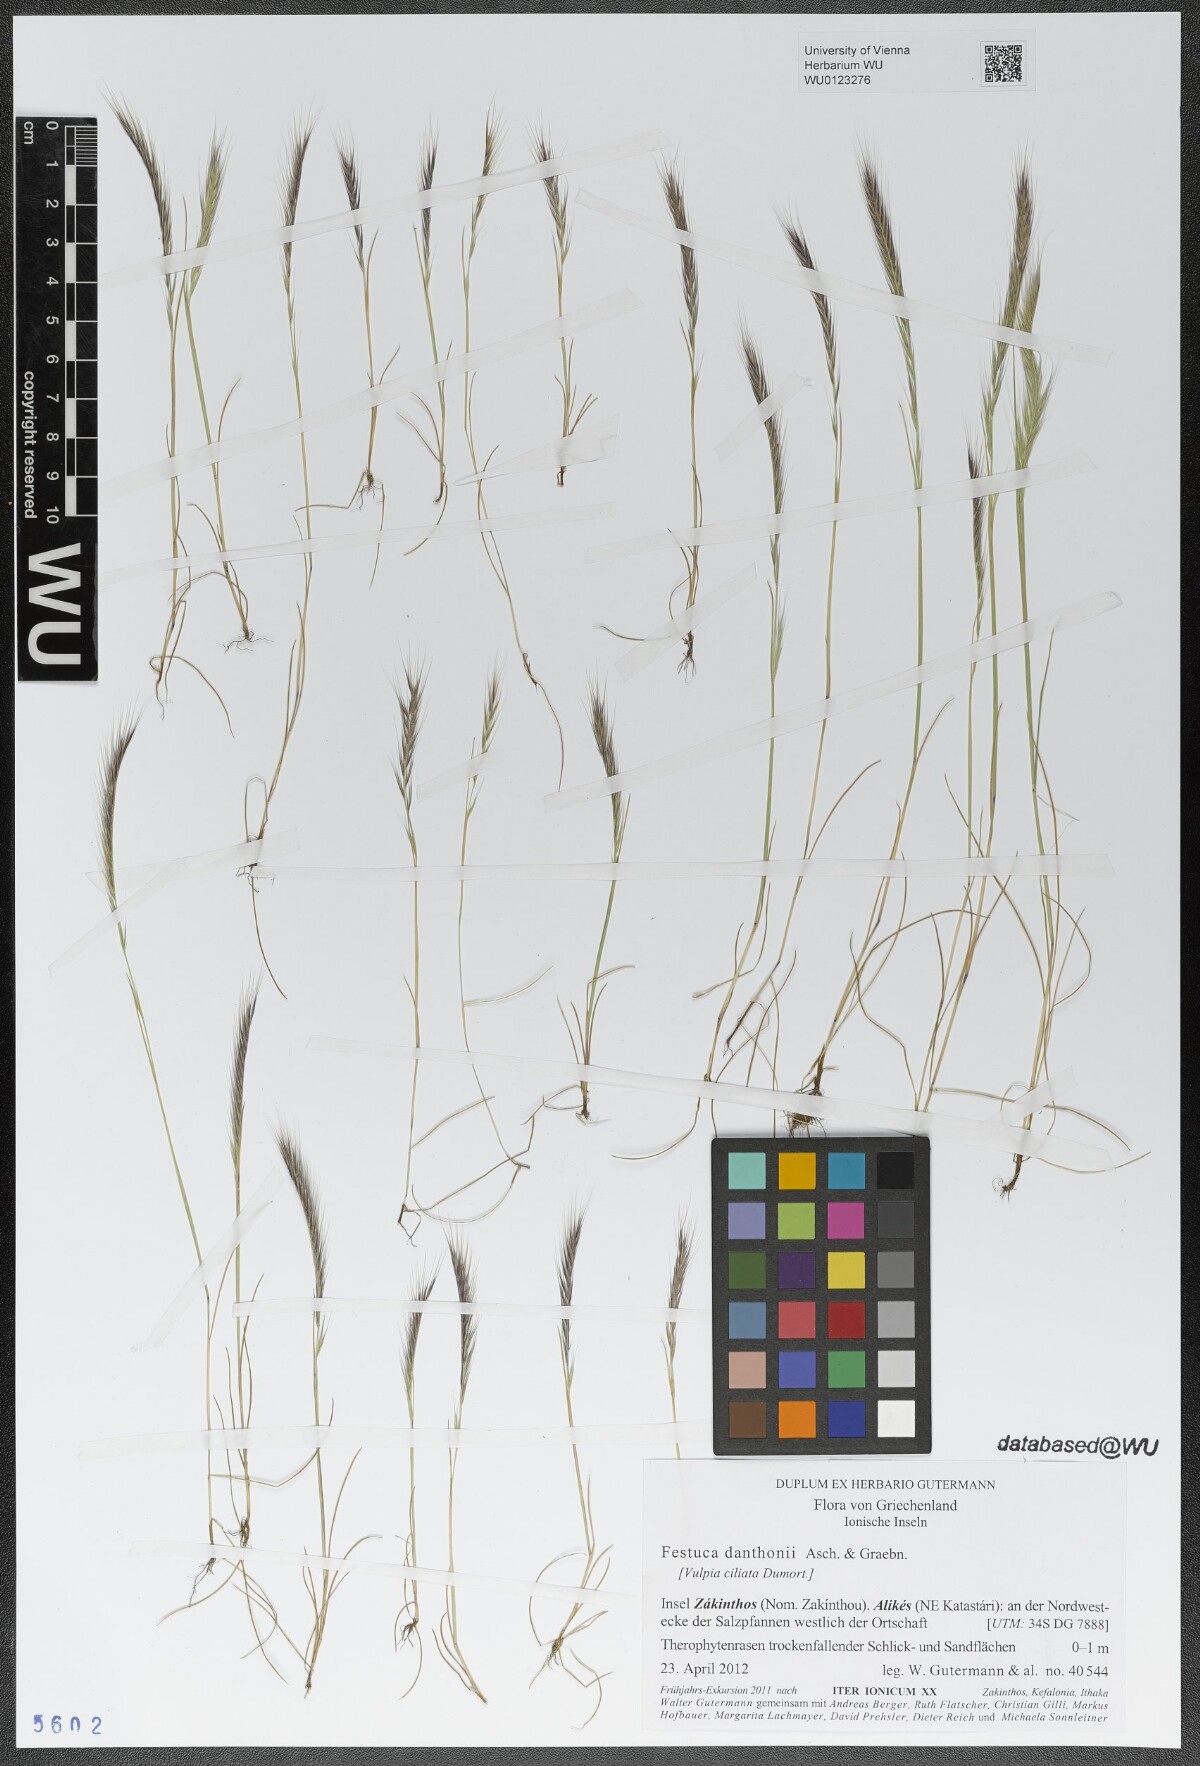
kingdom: Plantae
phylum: Tracheophyta
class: Liliopsida
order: Poales
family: Poaceae
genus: Festuca
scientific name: Festuca ambigua
